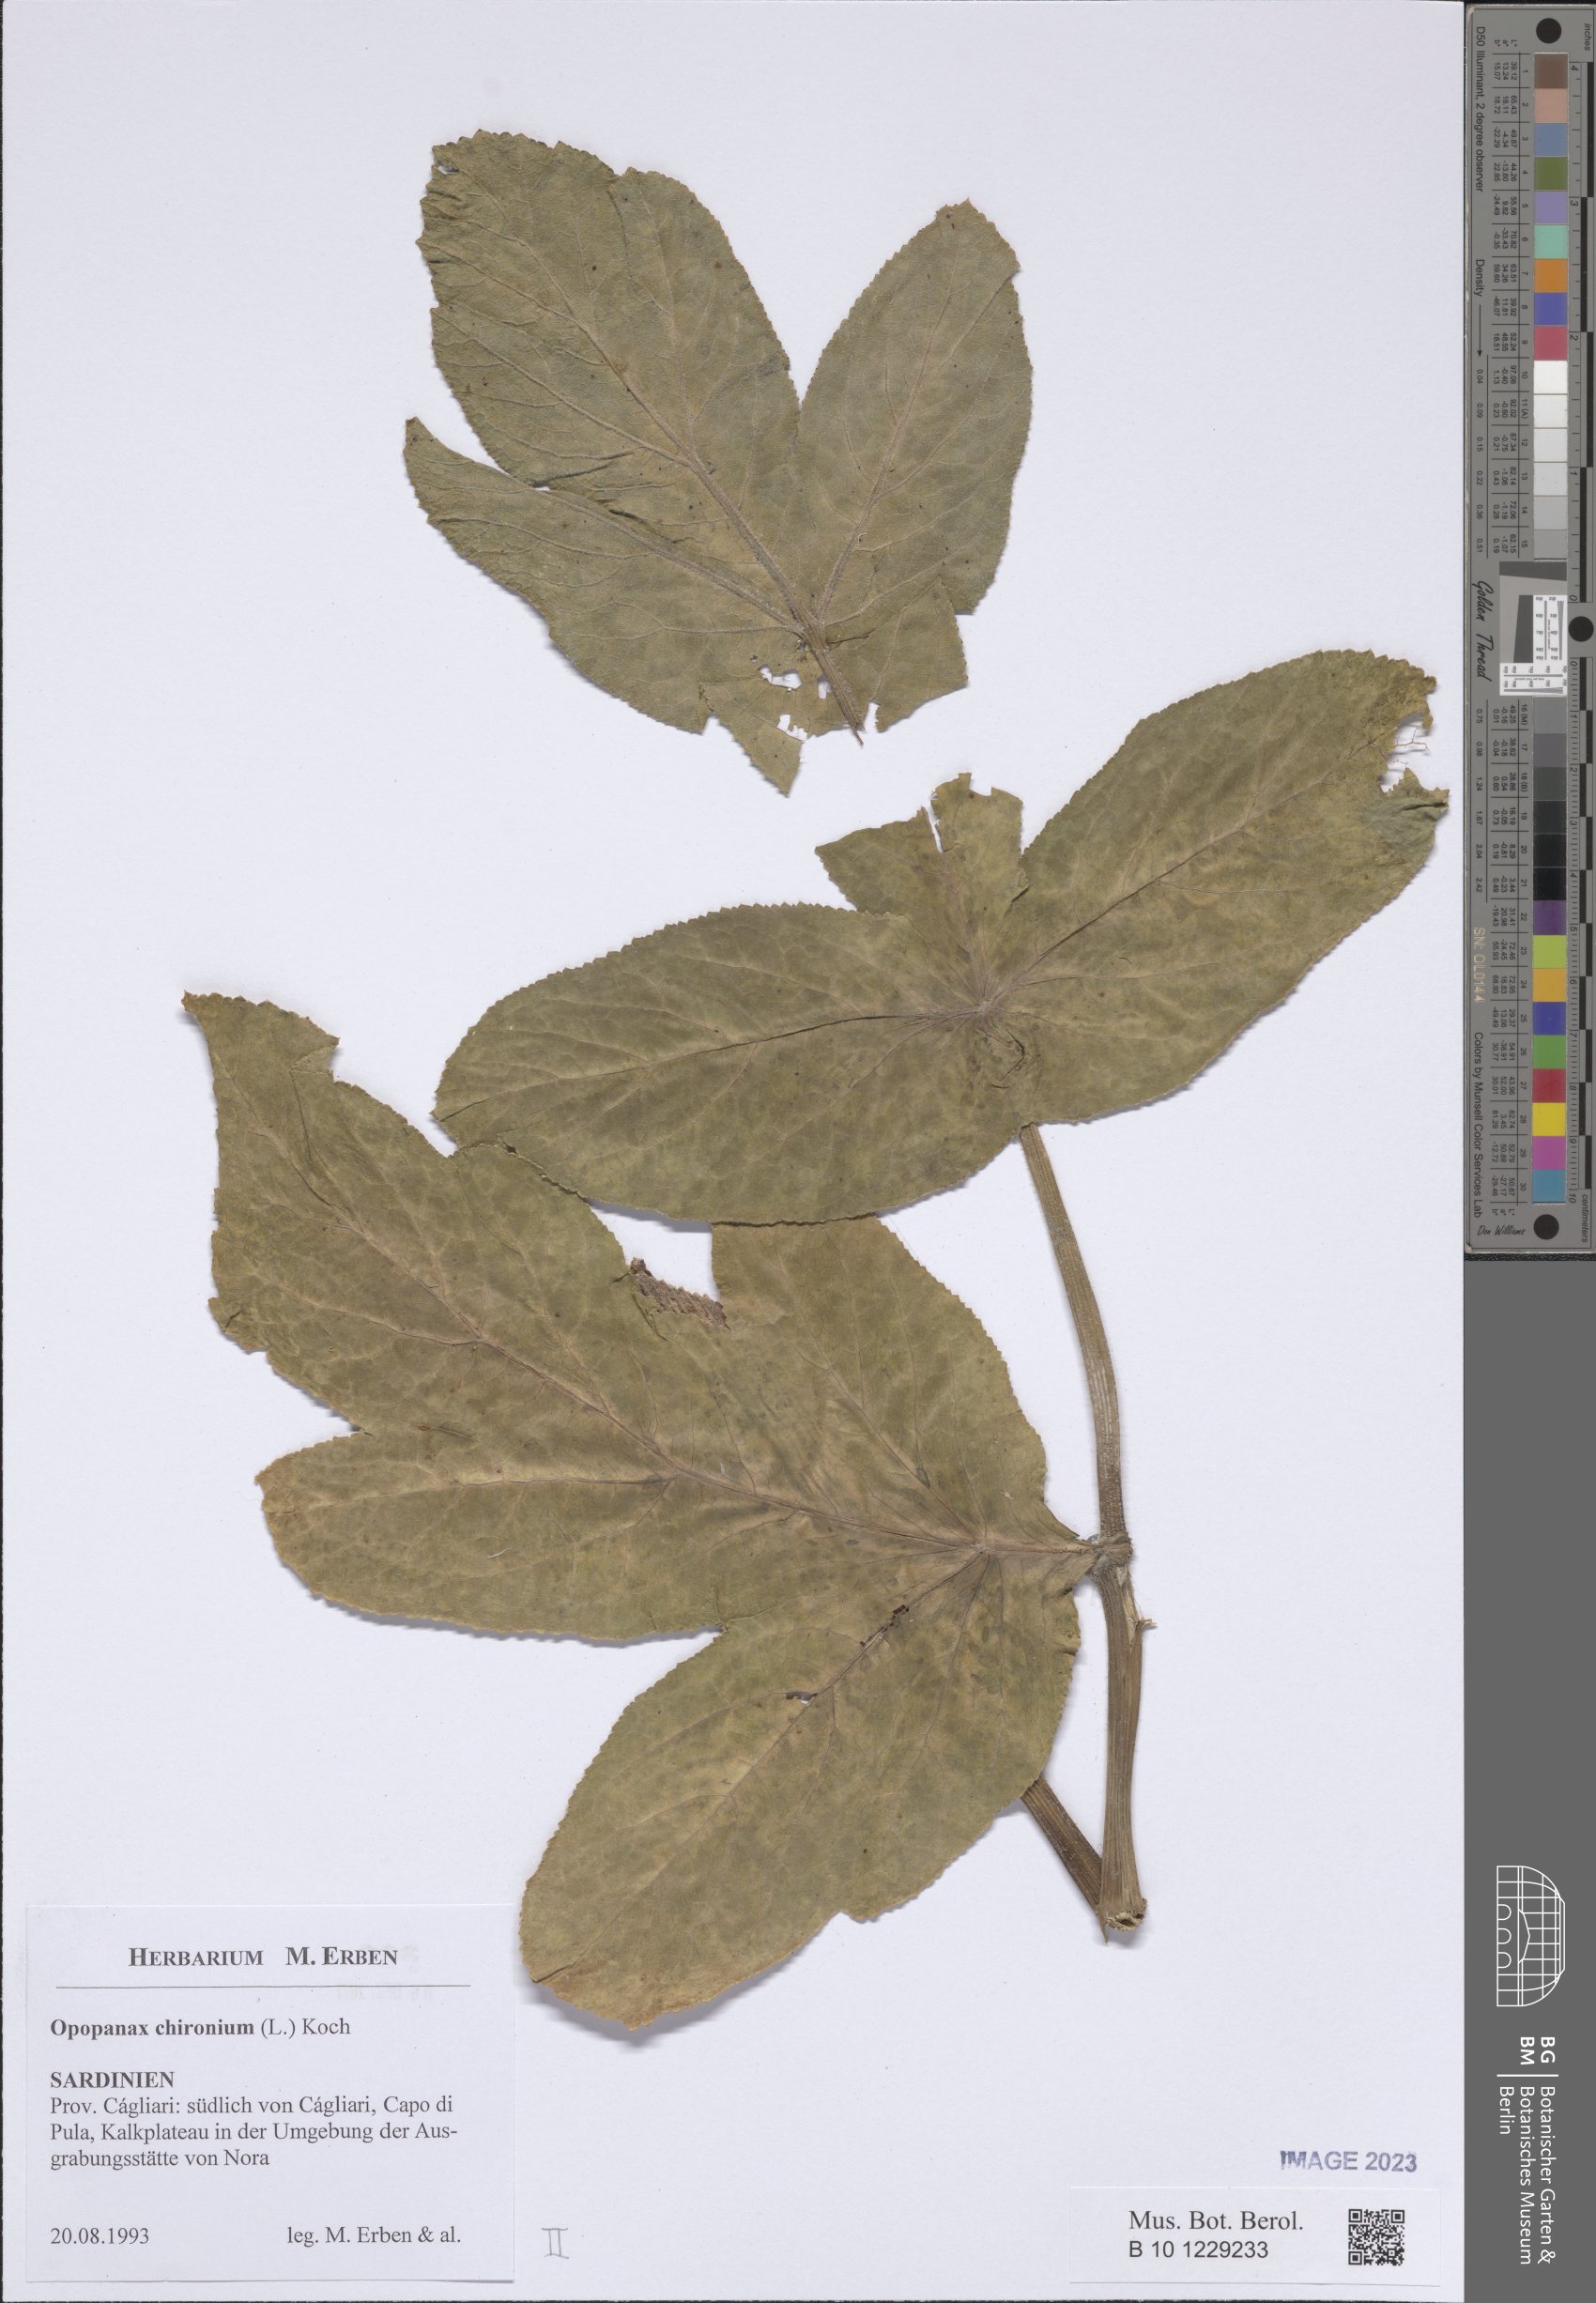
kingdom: Plantae
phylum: Tracheophyta
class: Magnoliopsida
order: Apiales
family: Apiaceae
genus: Opopanax
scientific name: Opopanax chironium
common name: Hercules-all-heal
